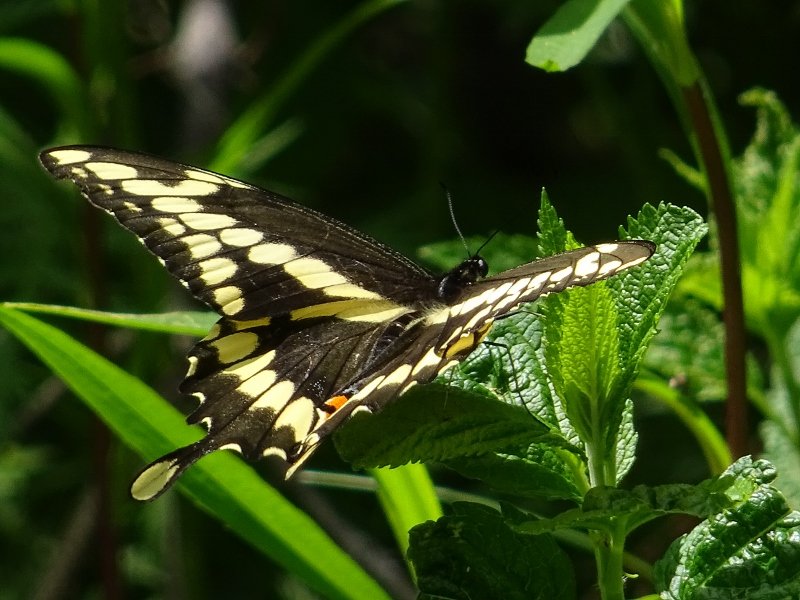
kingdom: Animalia
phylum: Arthropoda
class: Insecta
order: Lepidoptera
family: Papilionidae
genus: Papilio
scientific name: Papilio cresphontes
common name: Eastern Giant Swallowtail
